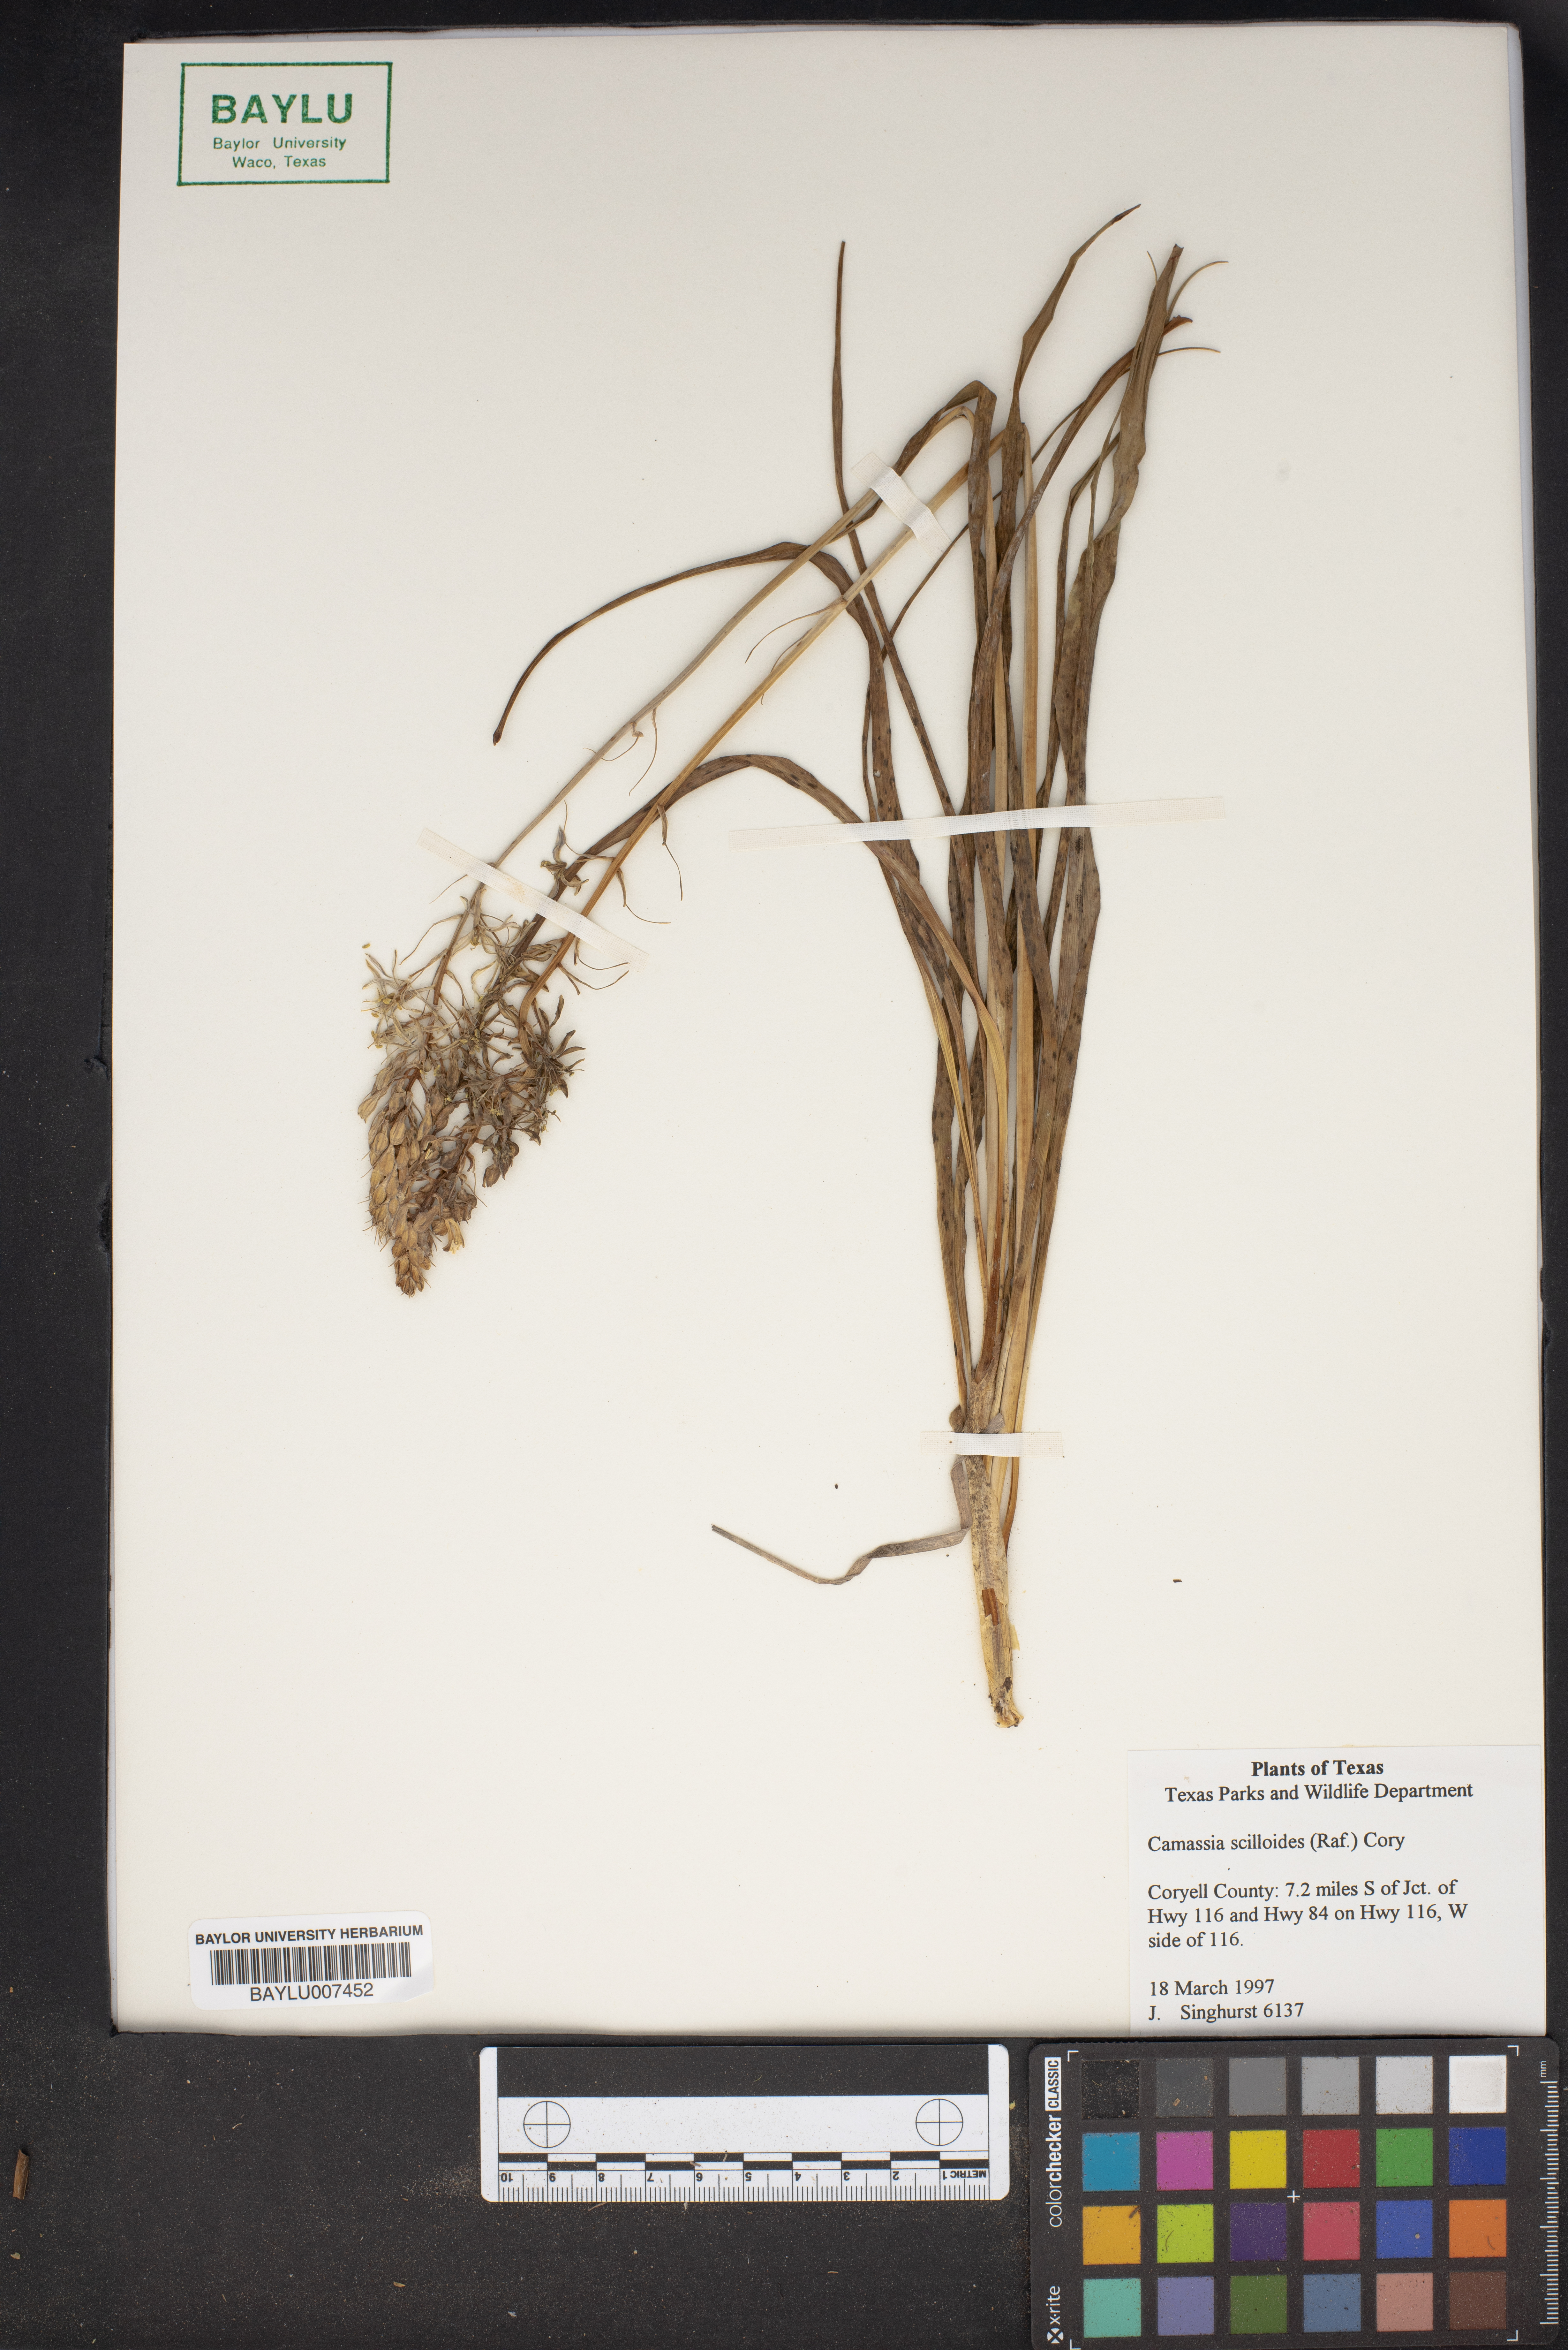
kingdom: Plantae
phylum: Tracheophyta
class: Liliopsida
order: Asparagales
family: Asparagaceae
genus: Camassia
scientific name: Camassia scilloides
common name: Wild hyacinth
